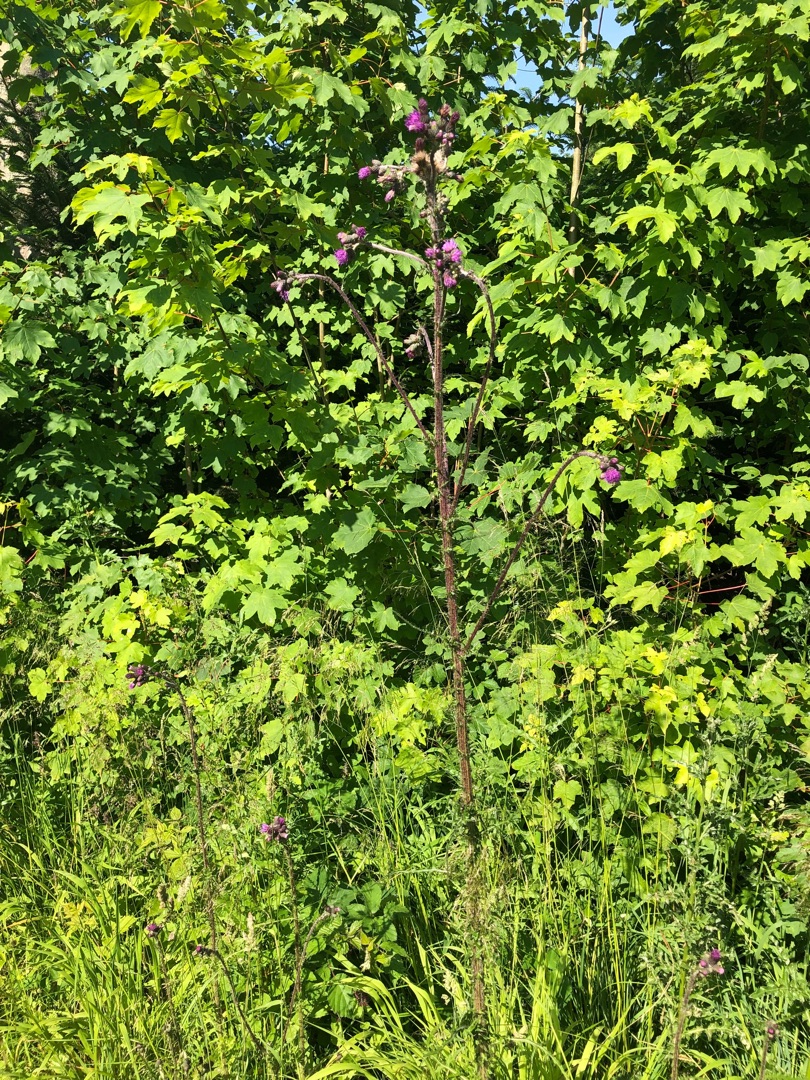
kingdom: Plantae
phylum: Tracheophyta
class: Magnoliopsida
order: Asterales
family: Asteraceae
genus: Cirsium
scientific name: Cirsium palustre
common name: Kær-tidsel
